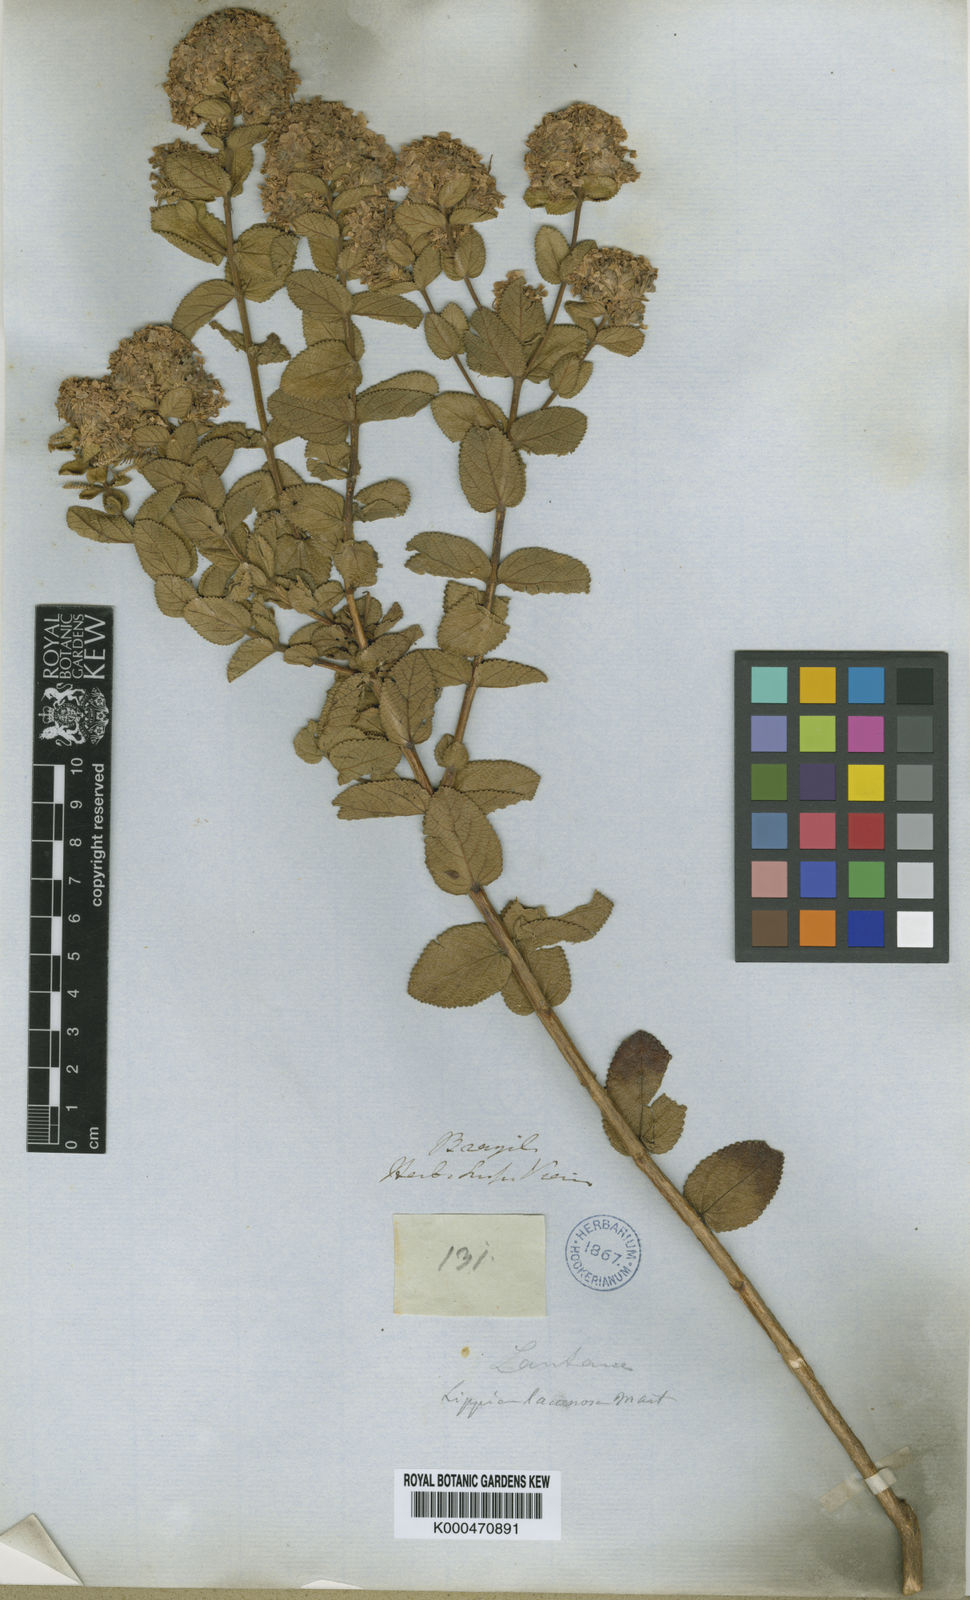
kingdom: Plantae
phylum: Tracheophyta
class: Magnoliopsida
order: Lamiales
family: Verbenaceae
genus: Lippia
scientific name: Lippia lacunosa
